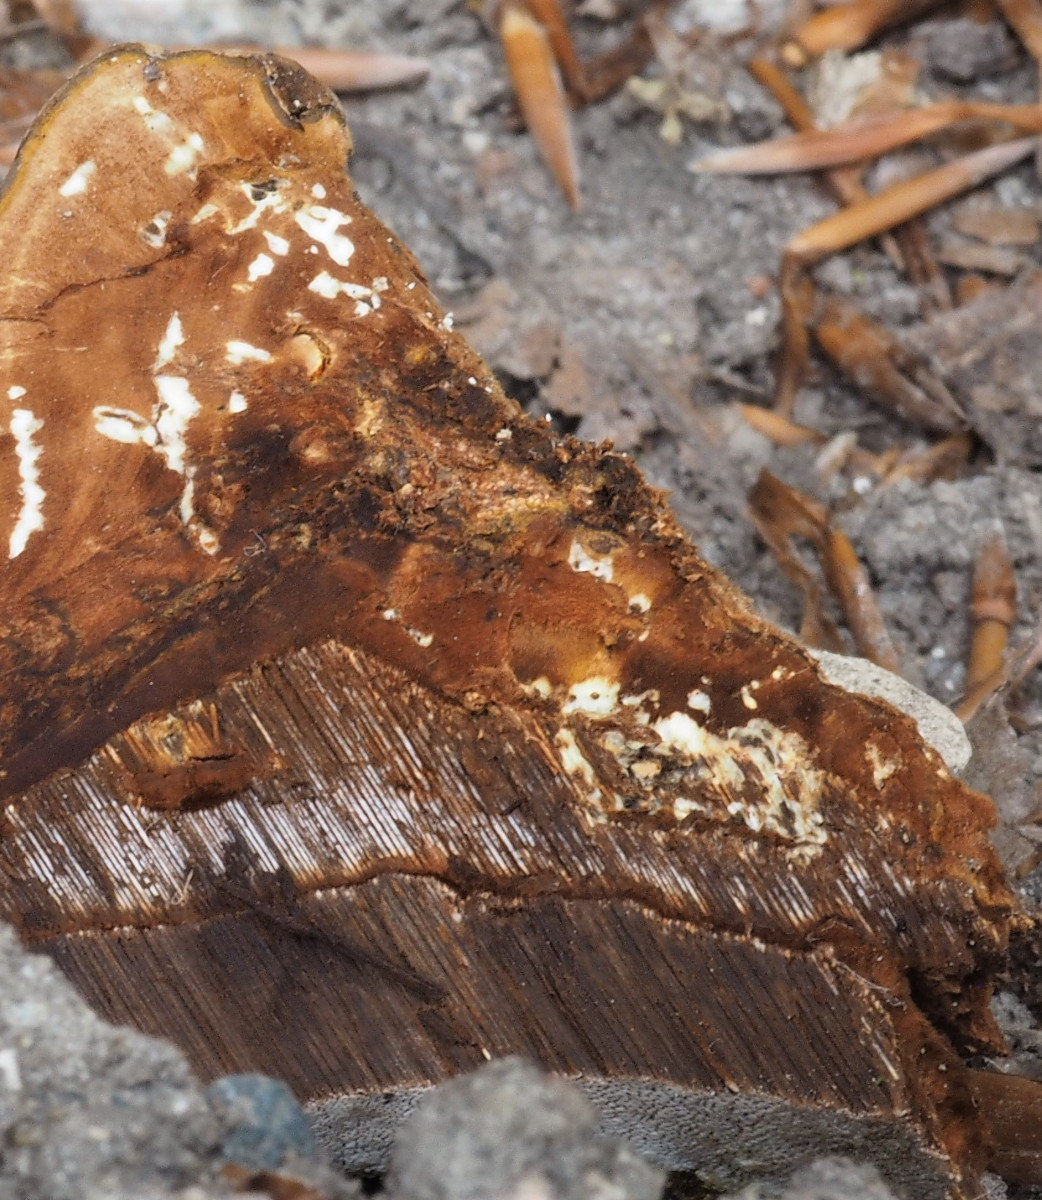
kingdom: Fungi
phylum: Basidiomycota
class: Agaricomycetes
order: Polyporales
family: Polyporaceae
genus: Ganoderma
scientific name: Ganoderma applanatum
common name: flad lakporesvamp
